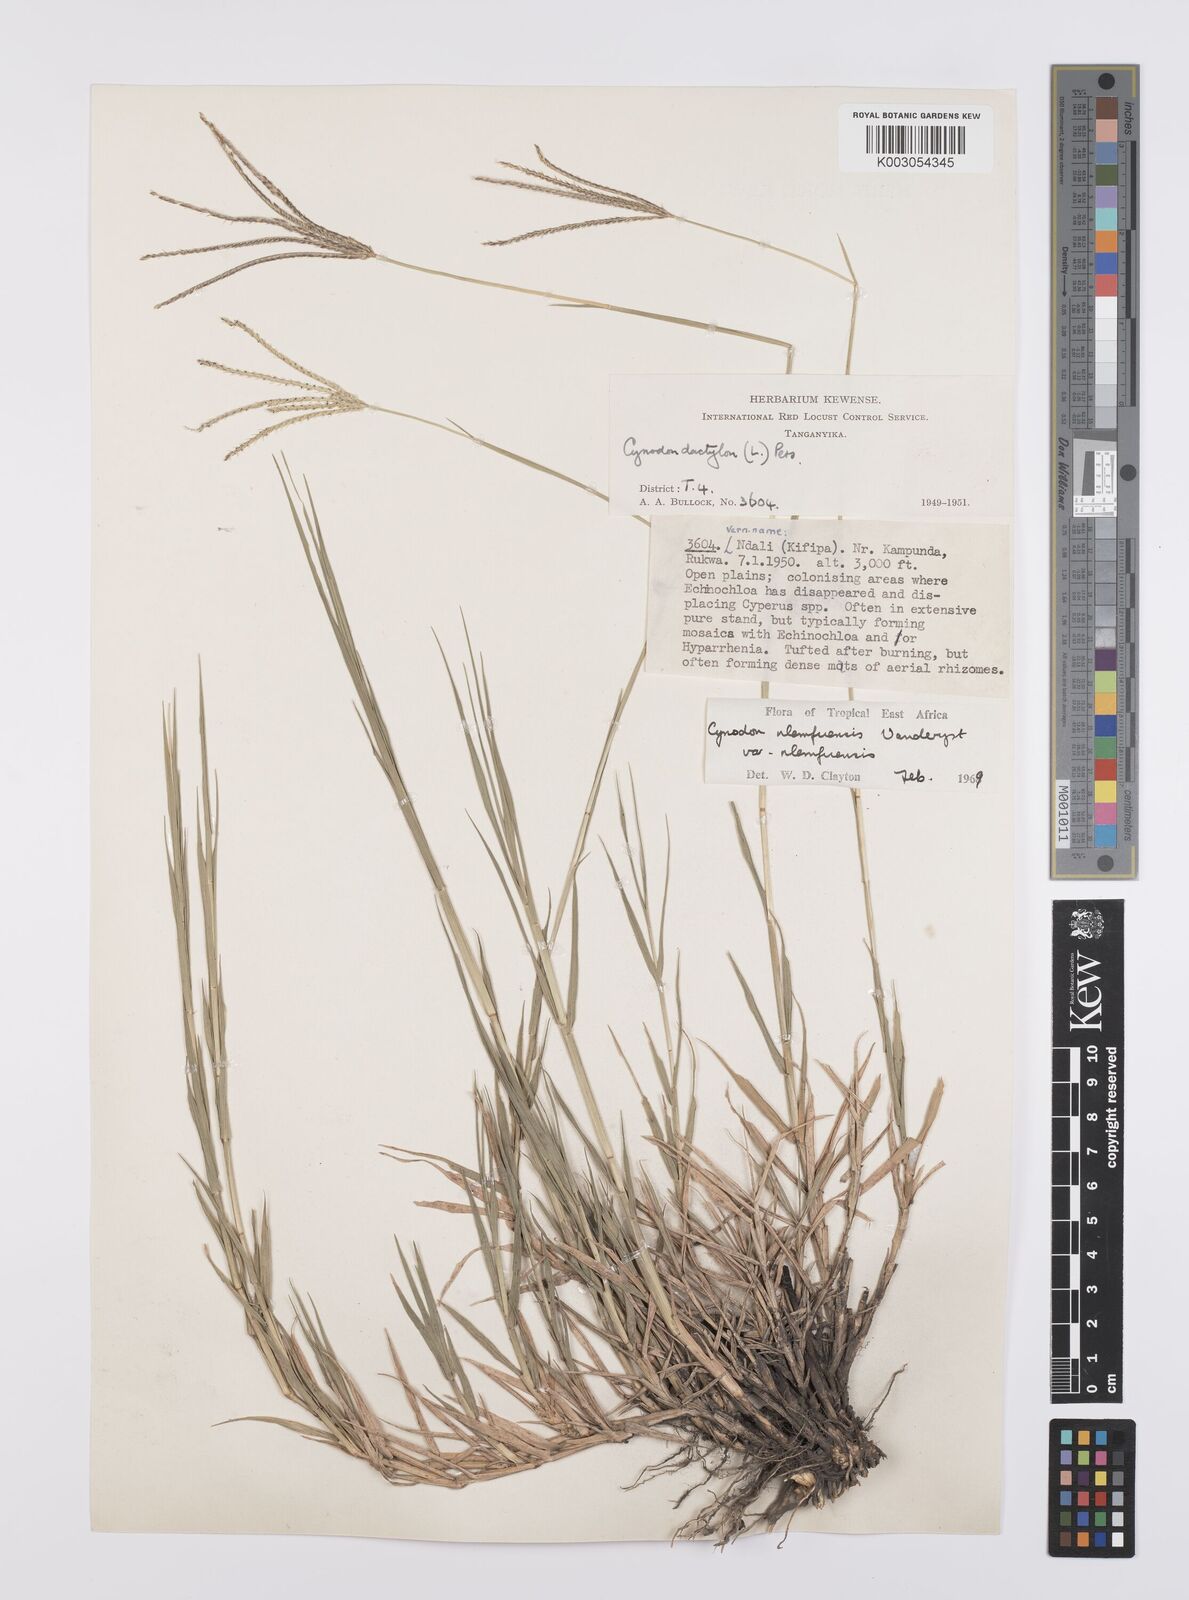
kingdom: Plantae
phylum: Tracheophyta
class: Liliopsida
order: Poales
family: Poaceae
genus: Cynodon
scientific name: Cynodon nlemfuensis
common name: African bermudagrass
